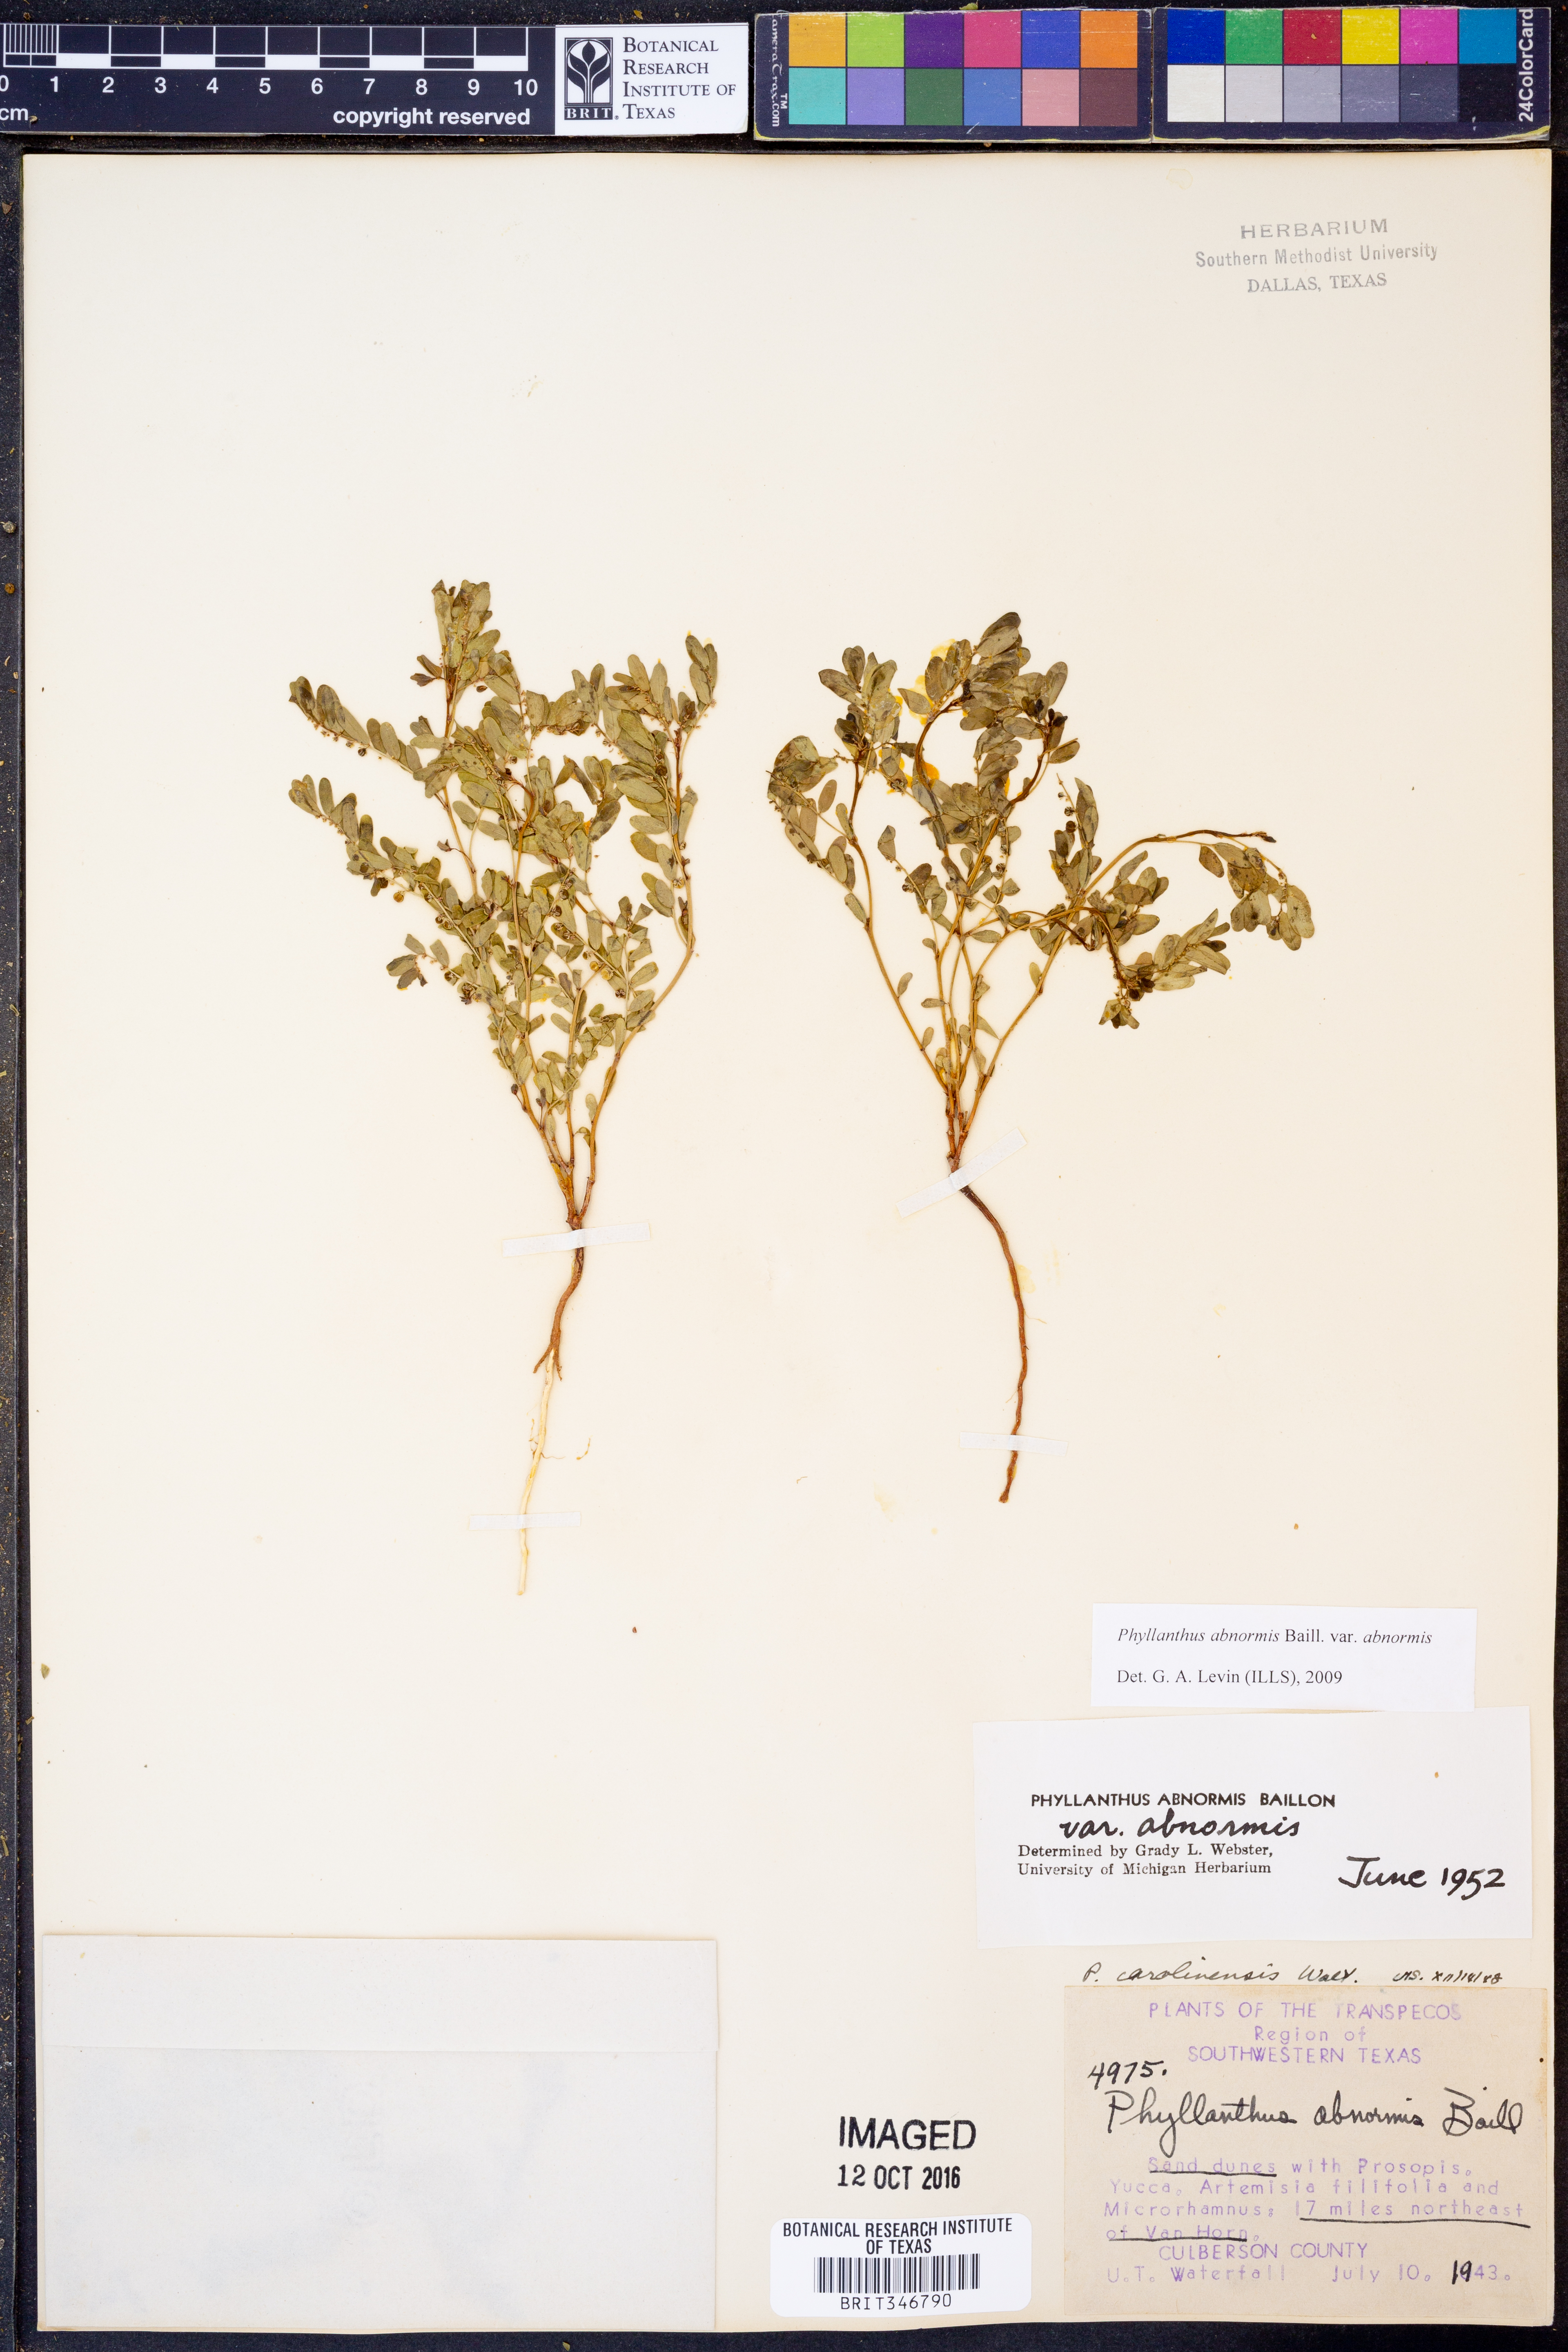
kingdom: Plantae
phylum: Tracheophyta
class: Magnoliopsida
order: Malpighiales
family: Phyllanthaceae
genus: Phyllanthus
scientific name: Phyllanthus abnormis
